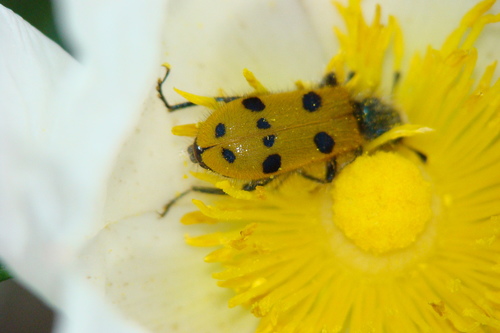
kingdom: Animalia
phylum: Arthropoda
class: Insecta
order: Coleoptera
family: Cleridae
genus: Trichodes
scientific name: Trichodes octopunctatus
